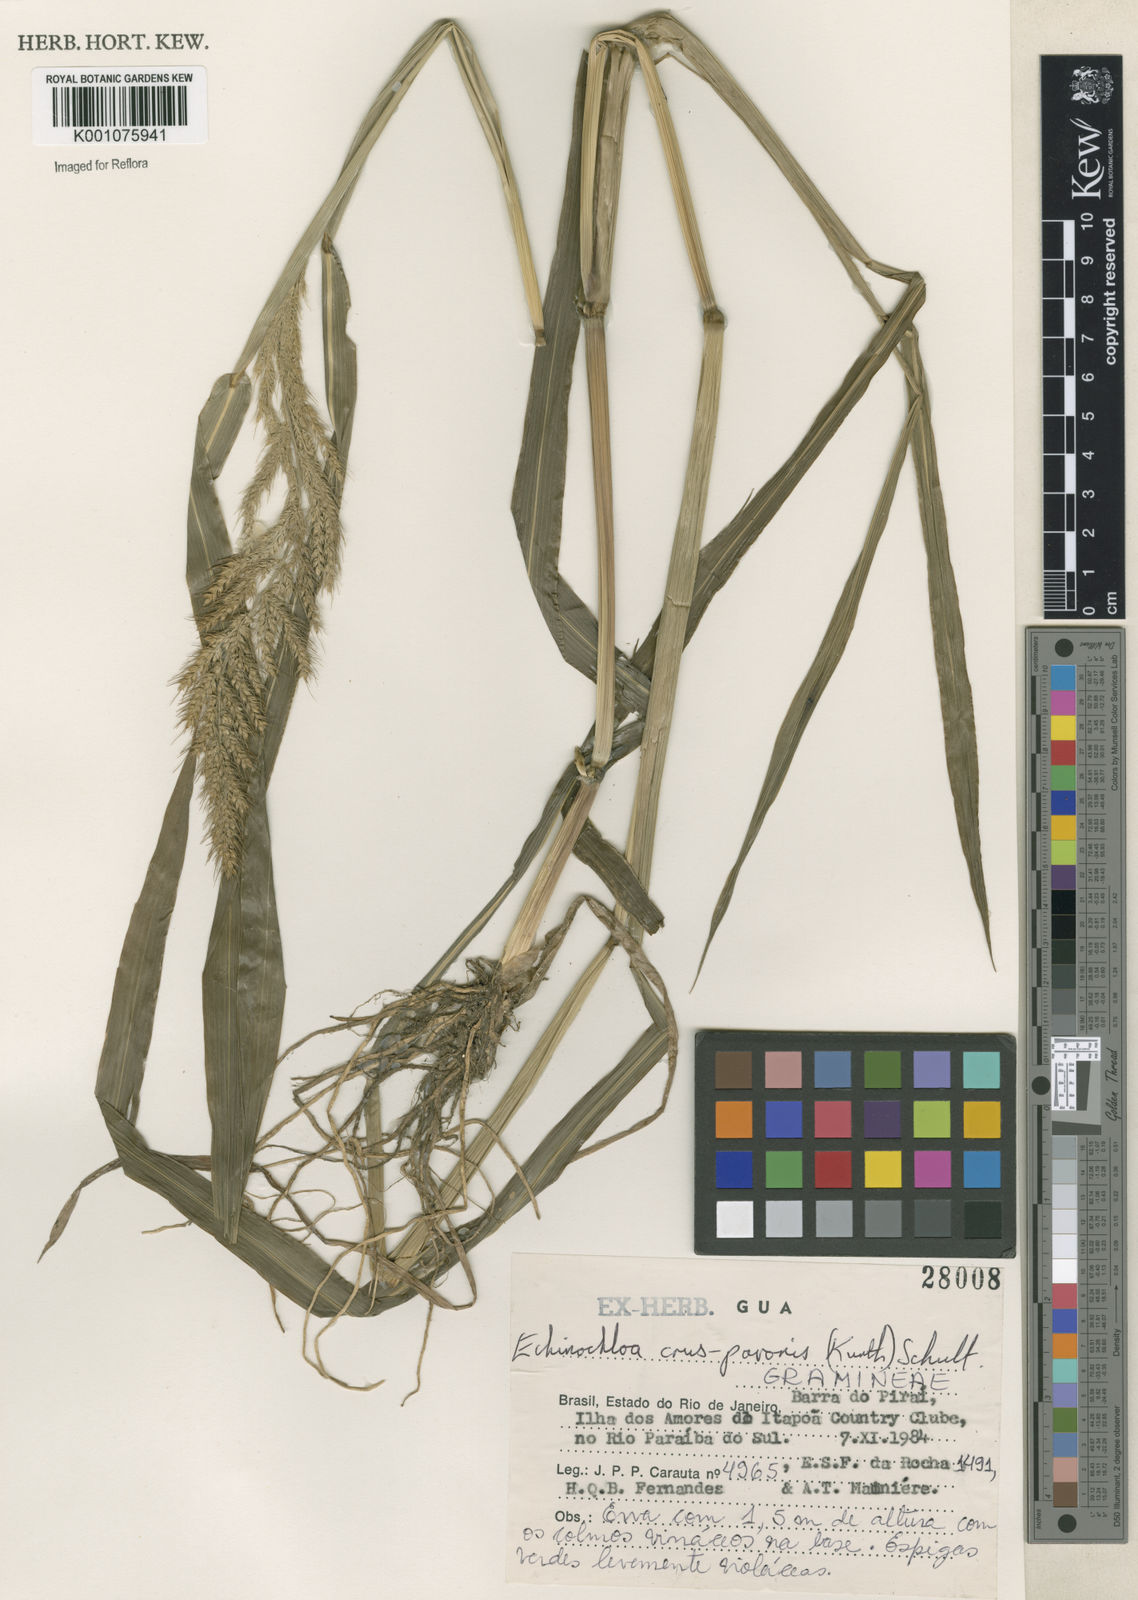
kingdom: Plantae
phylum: Tracheophyta
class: Liliopsida
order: Poales
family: Poaceae
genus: Echinochloa
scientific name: Echinochloa crus-pavonis
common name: Gulf cockspur grass
